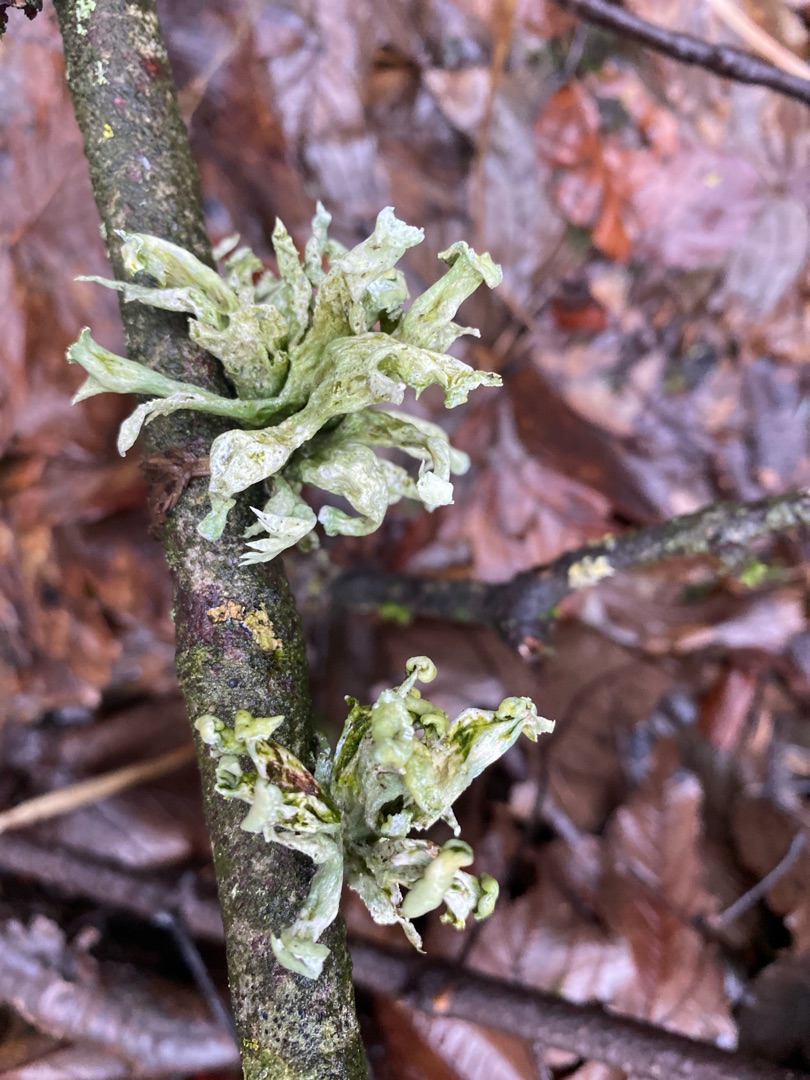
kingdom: Fungi
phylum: Ascomycota
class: Lecanoromycetes
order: Lecanorales
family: Ramalinaceae
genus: Ramalina
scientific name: Ramalina fastigiata
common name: Tue-grenlav
